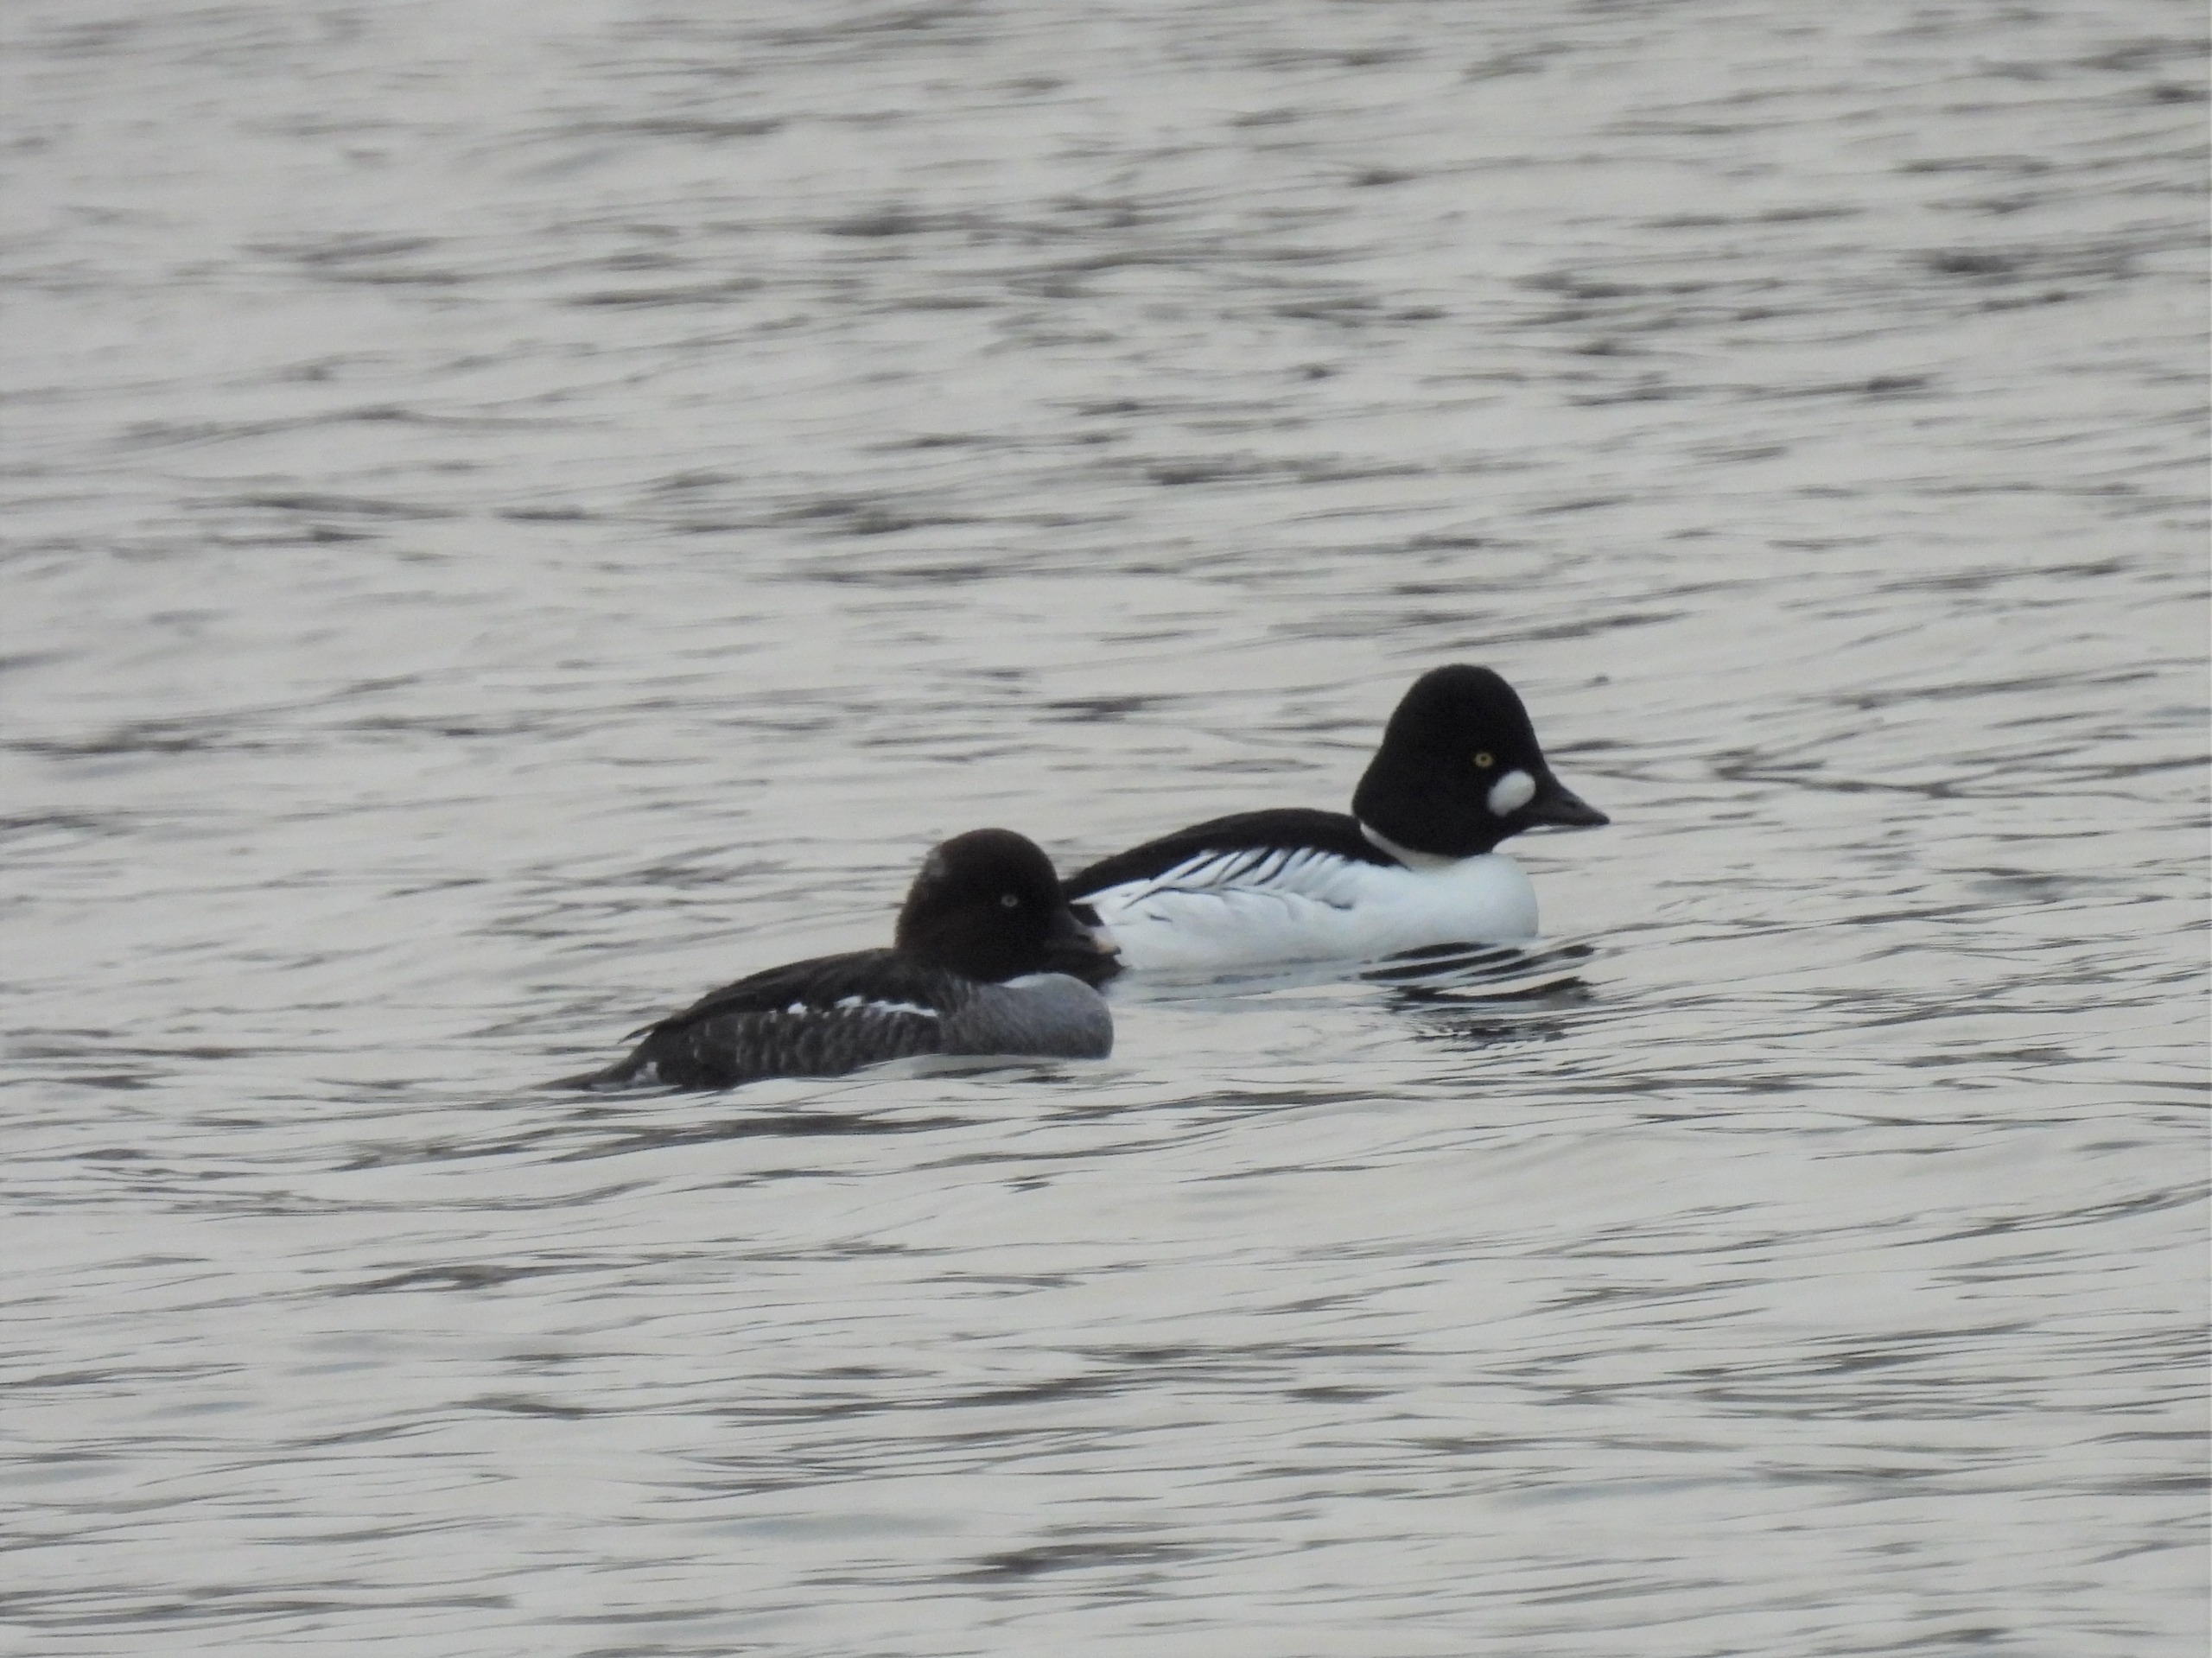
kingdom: Animalia
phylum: Chordata
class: Aves
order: Anseriformes
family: Anatidae
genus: Bucephala
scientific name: Bucephala clangula
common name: Hvinand
